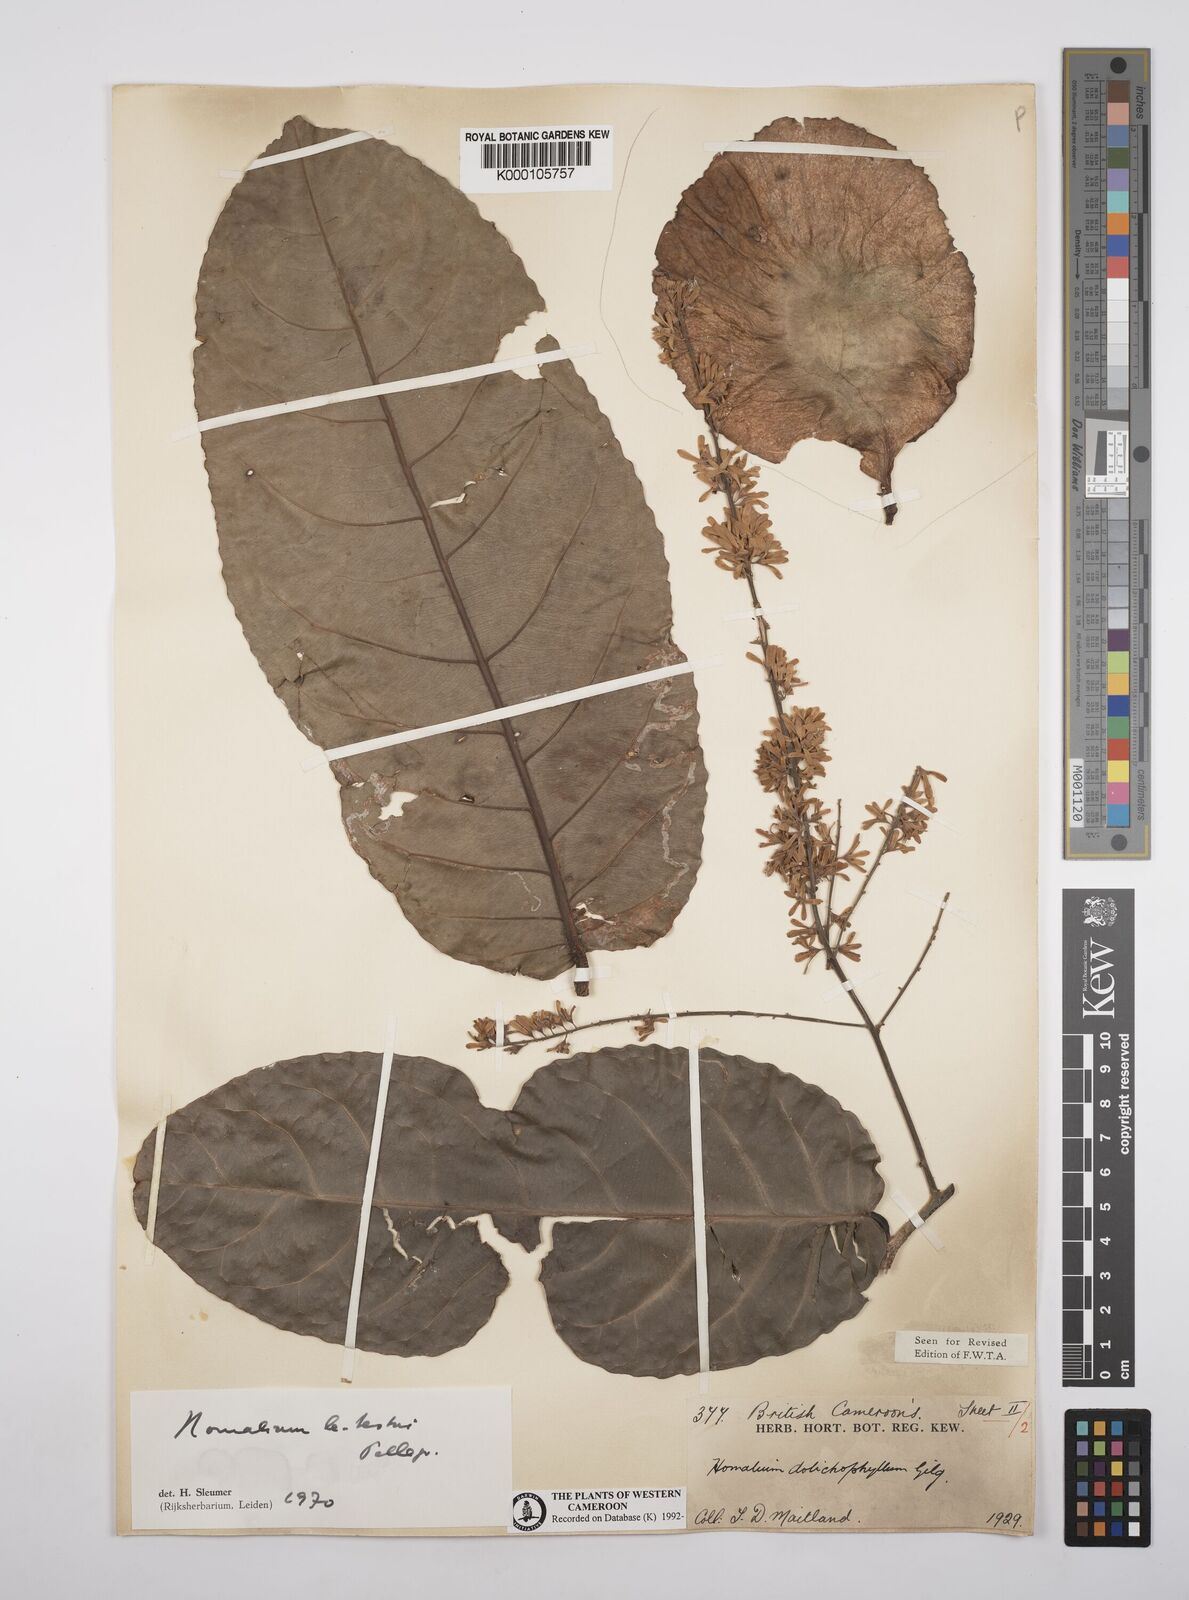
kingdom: Plantae
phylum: Tracheophyta
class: Magnoliopsida
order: Malpighiales
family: Salicaceae
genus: Homalium
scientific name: Homalium letestui
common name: African homalium
